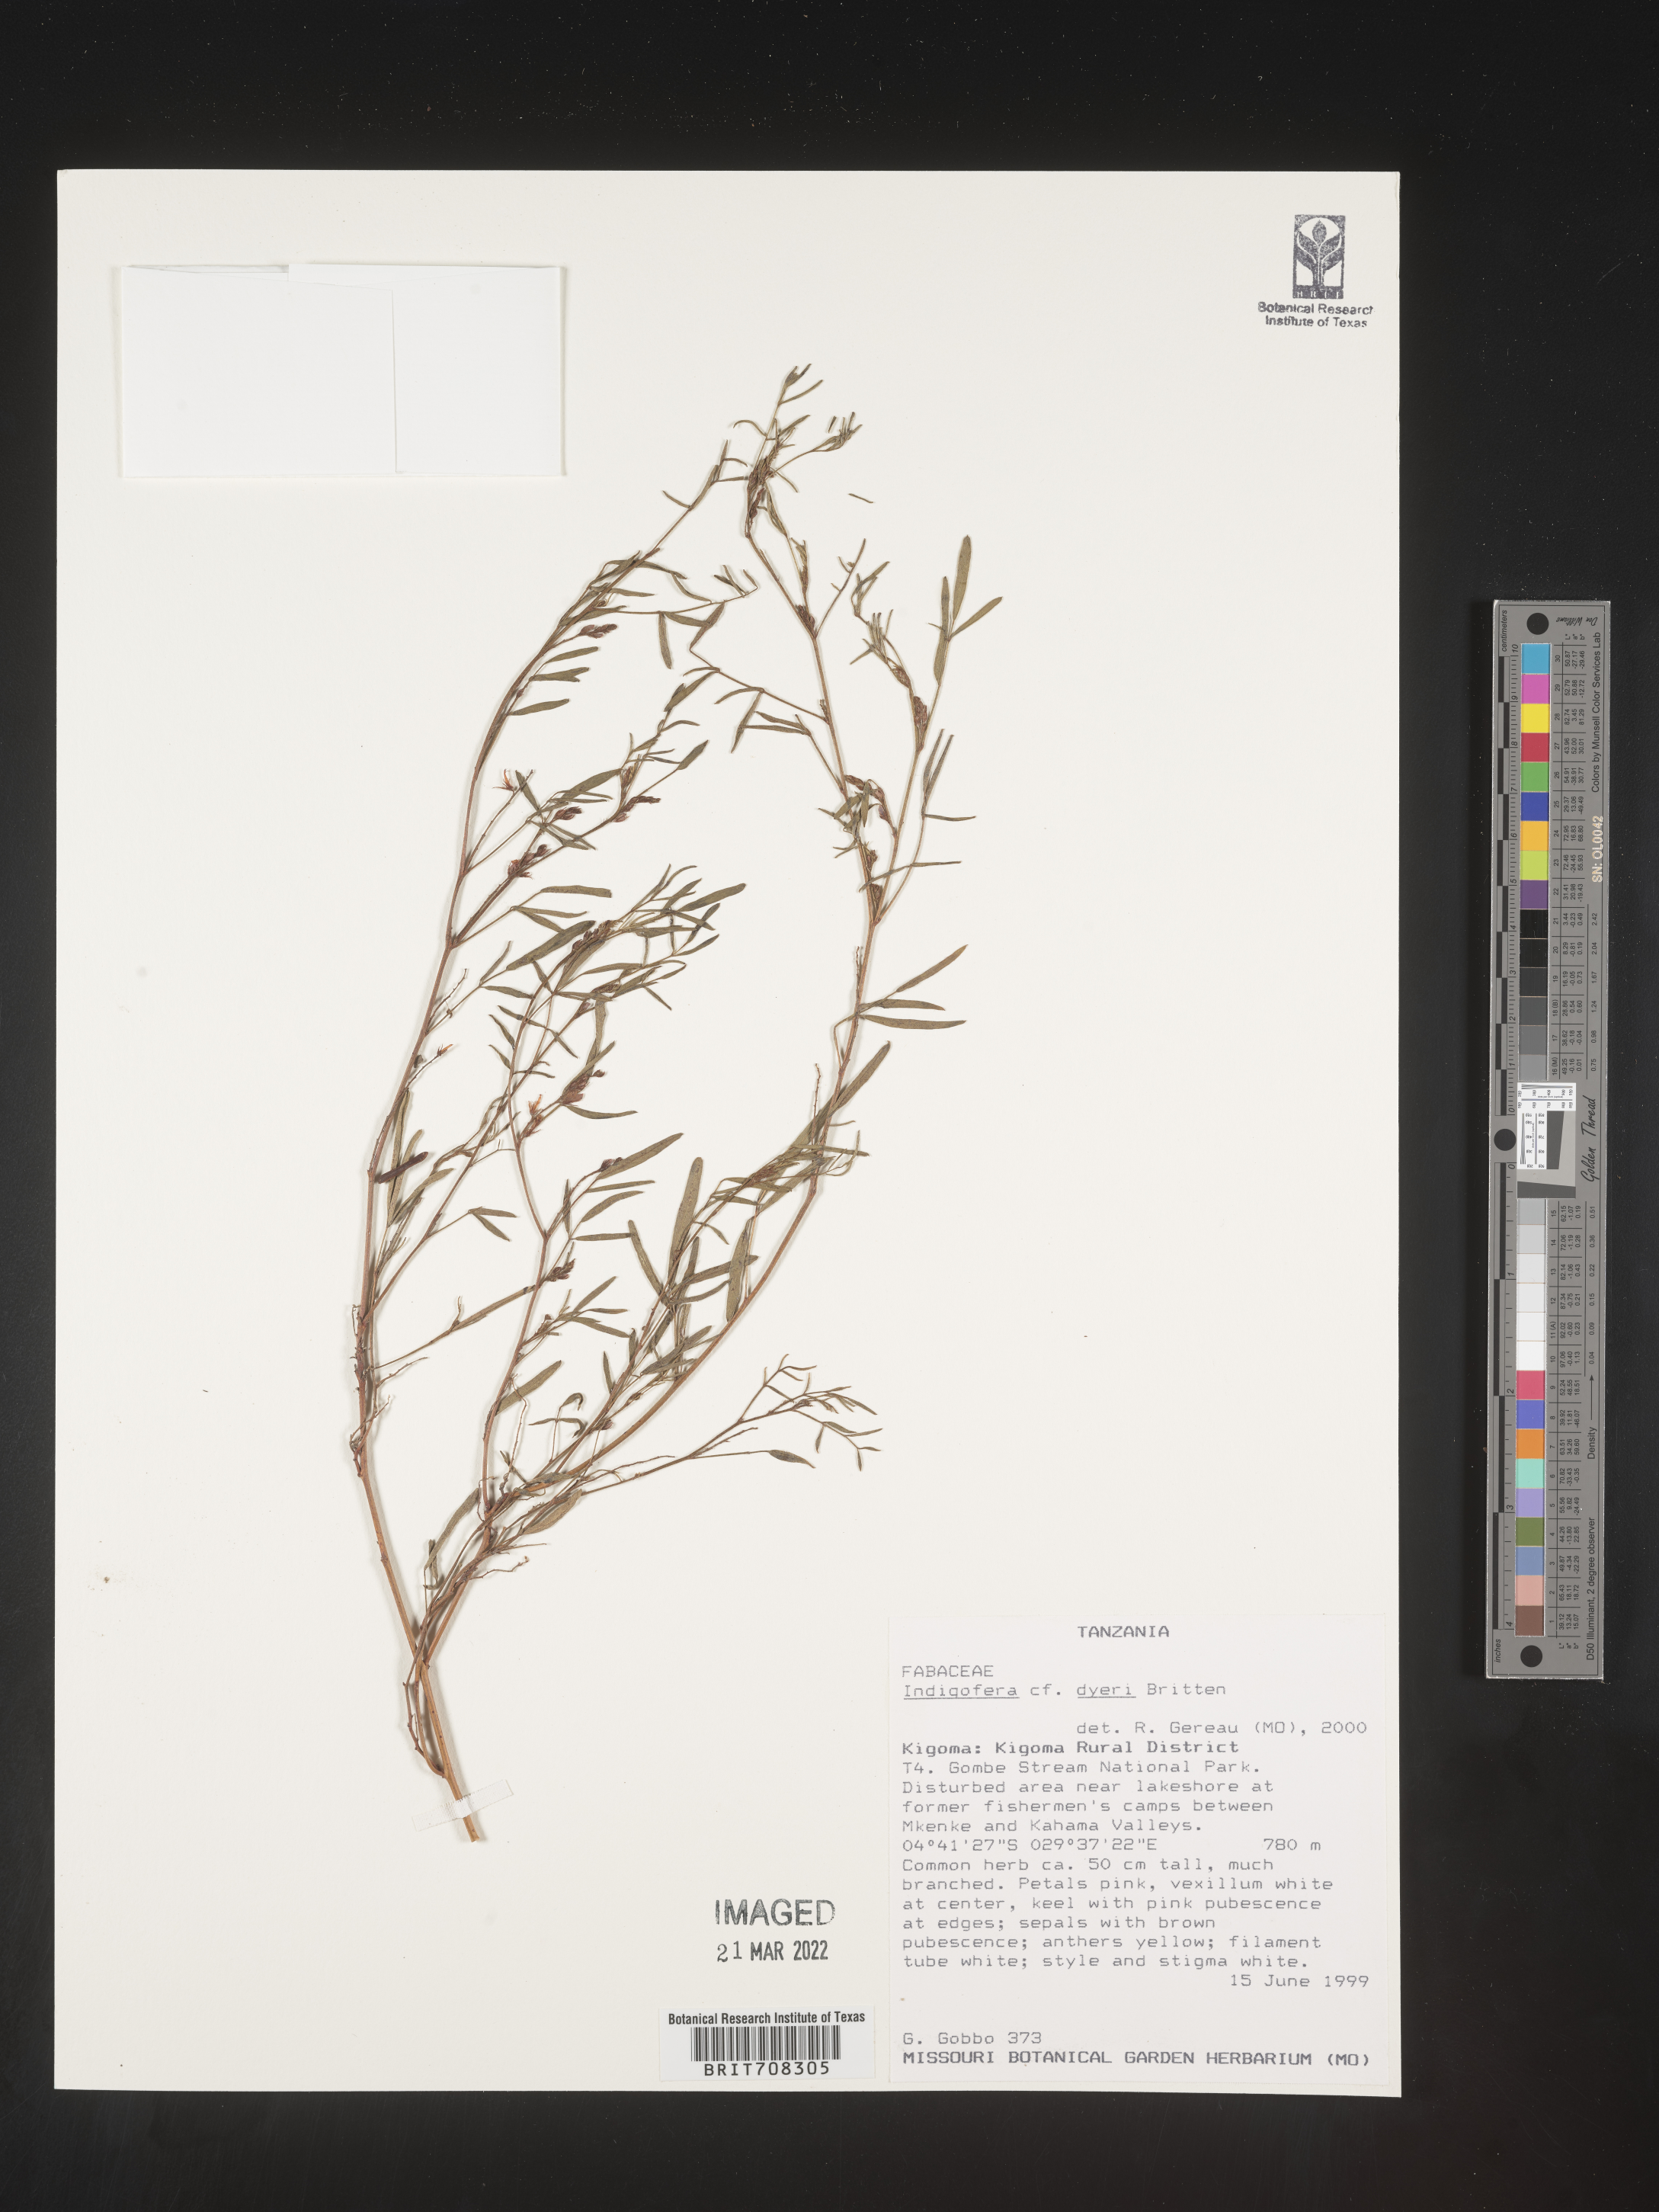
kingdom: Plantae
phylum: Tracheophyta
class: Magnoliopsida
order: Fabales
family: Fabaceae
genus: Indigofera
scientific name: Indigofera
